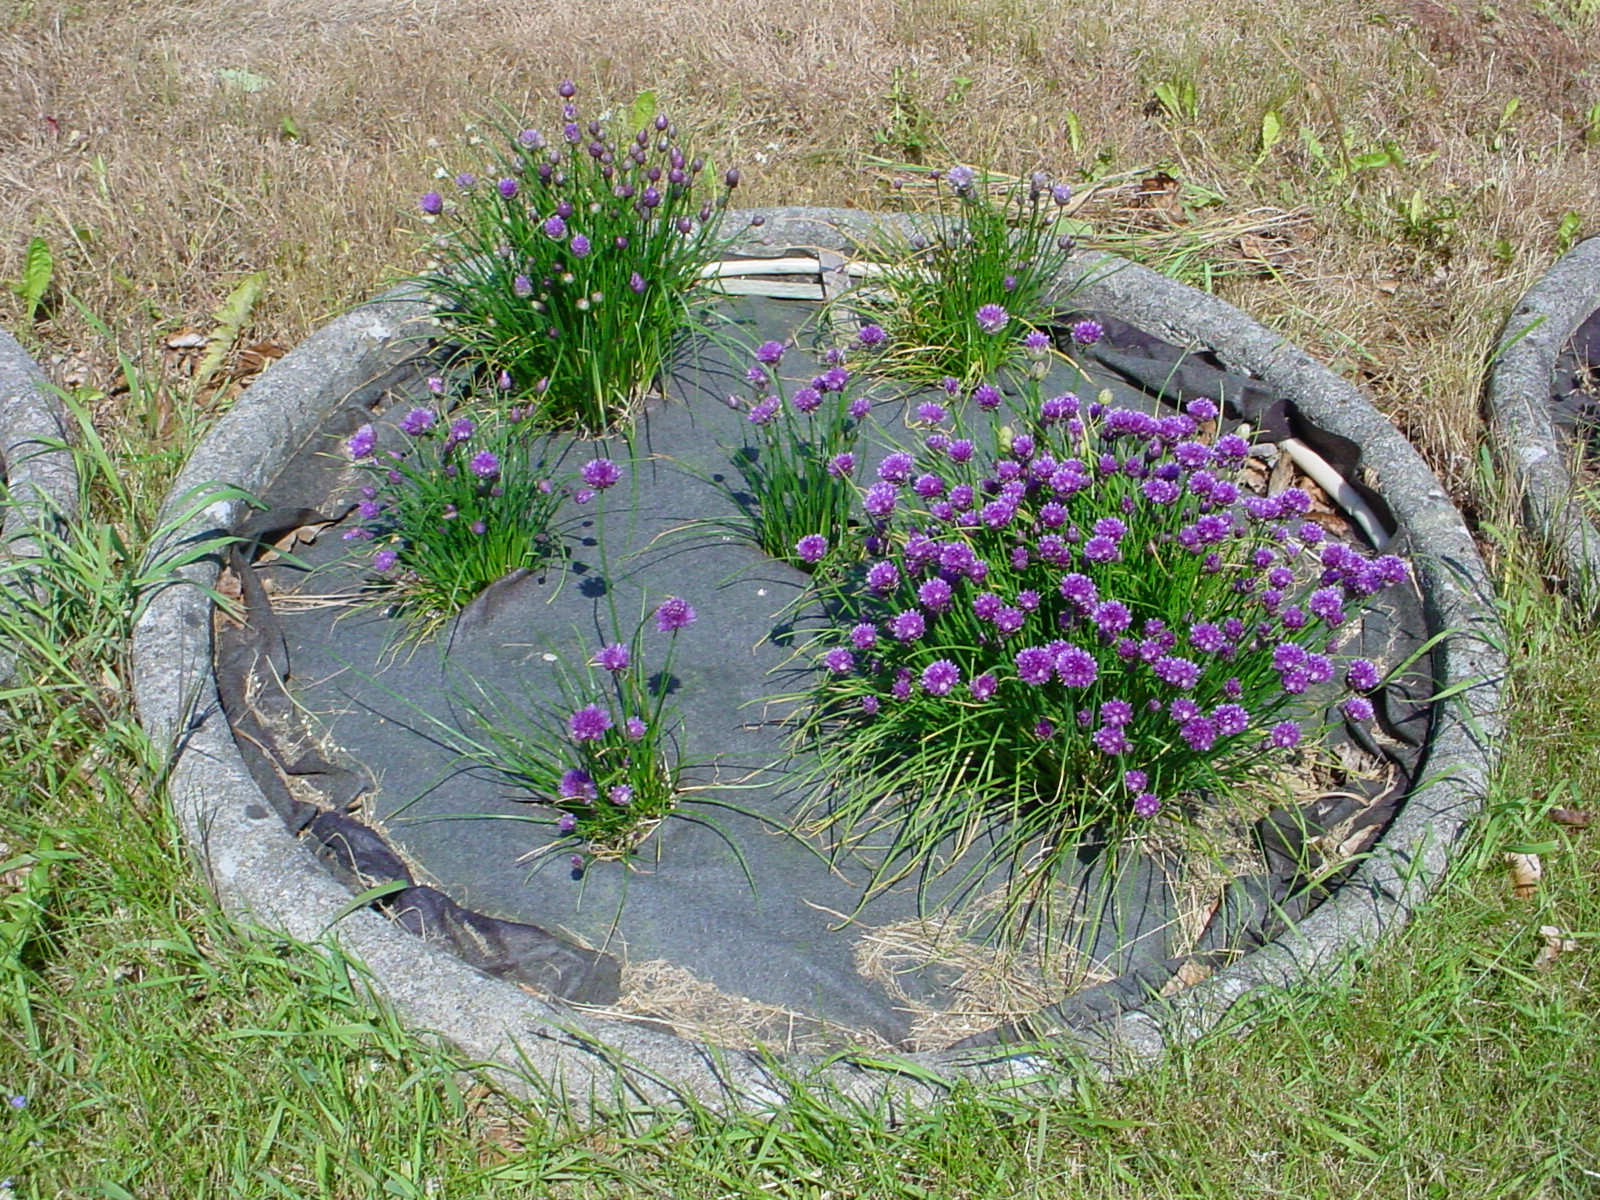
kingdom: Plantae
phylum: Tracheophyta
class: Liliopsida
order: Asparagales
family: Amaryllidaceae
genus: Allium
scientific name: Allium schoenoprasum
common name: Chives
